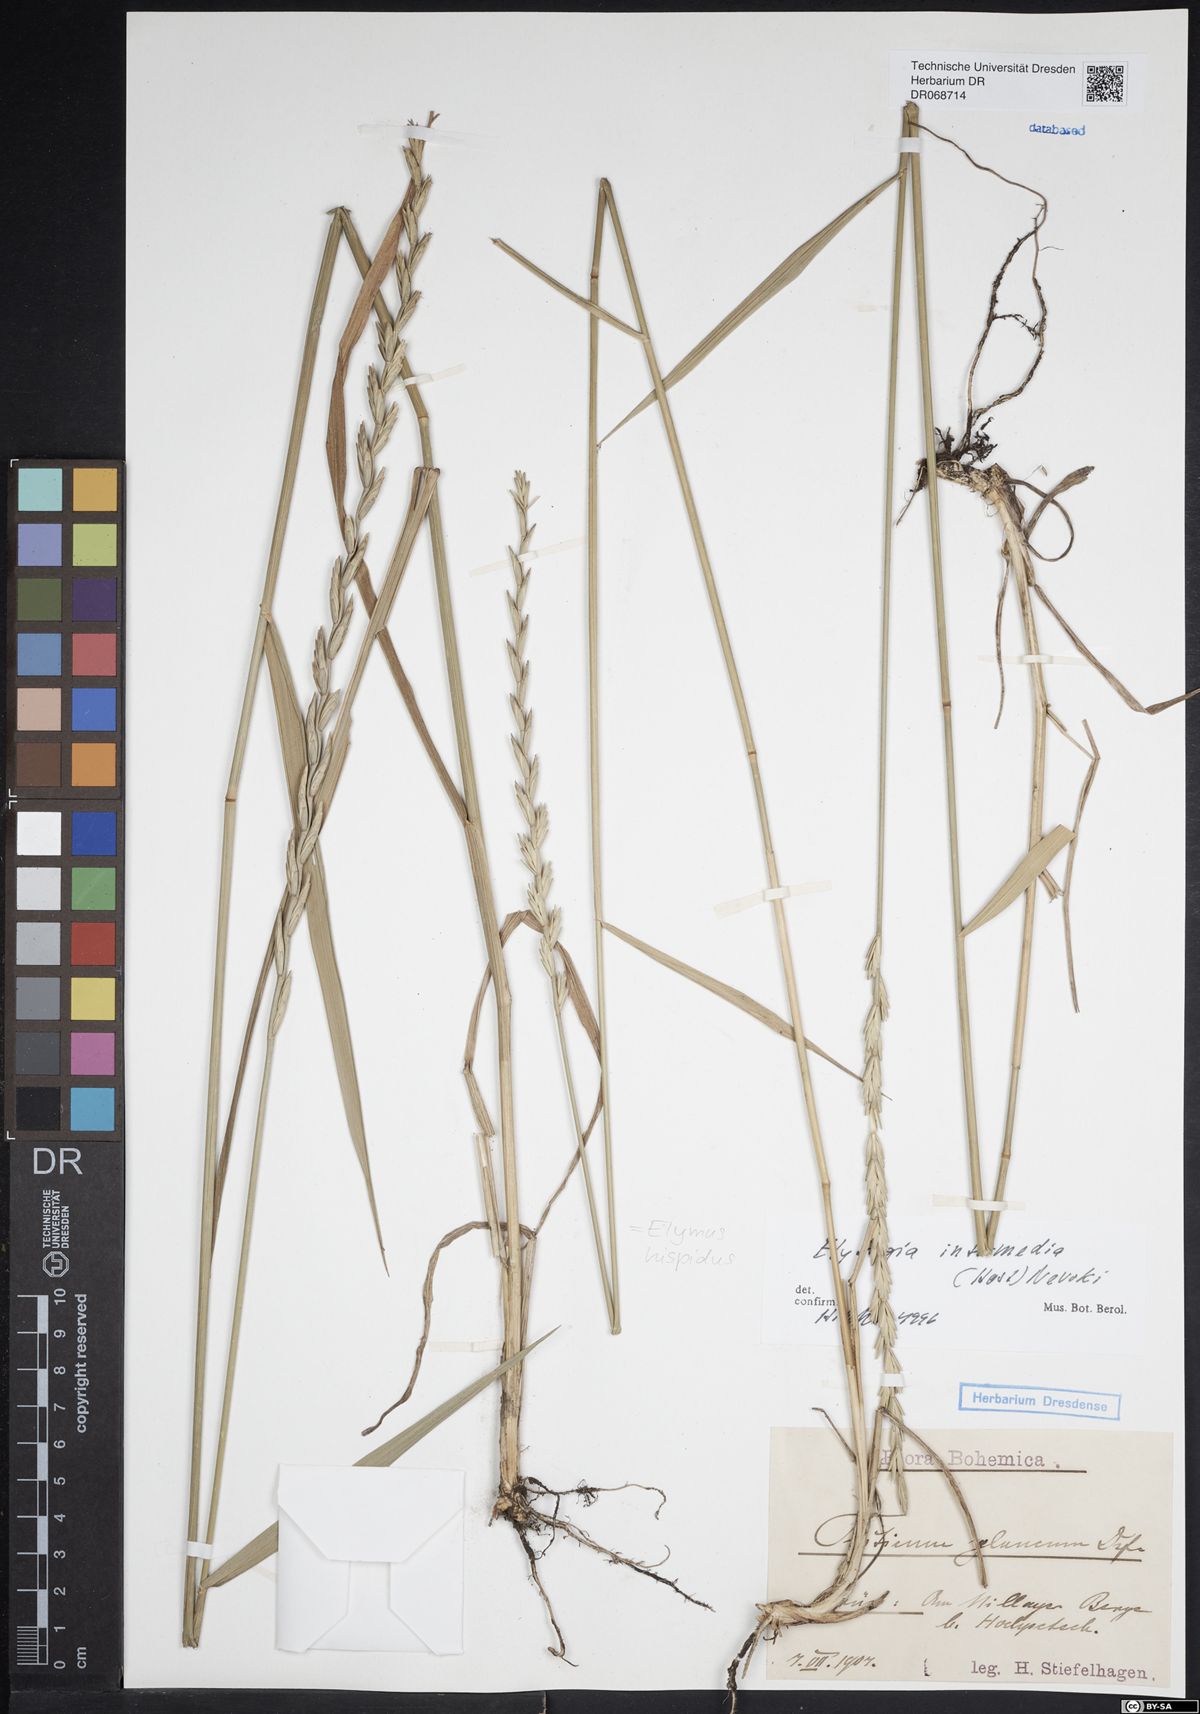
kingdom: Plantae
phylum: Tracheophyta
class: Liliopsida
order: Poales
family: Poaceae
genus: Thinopyrum
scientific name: Thinopyrum intermedium
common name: Intermediate wheatgrass
